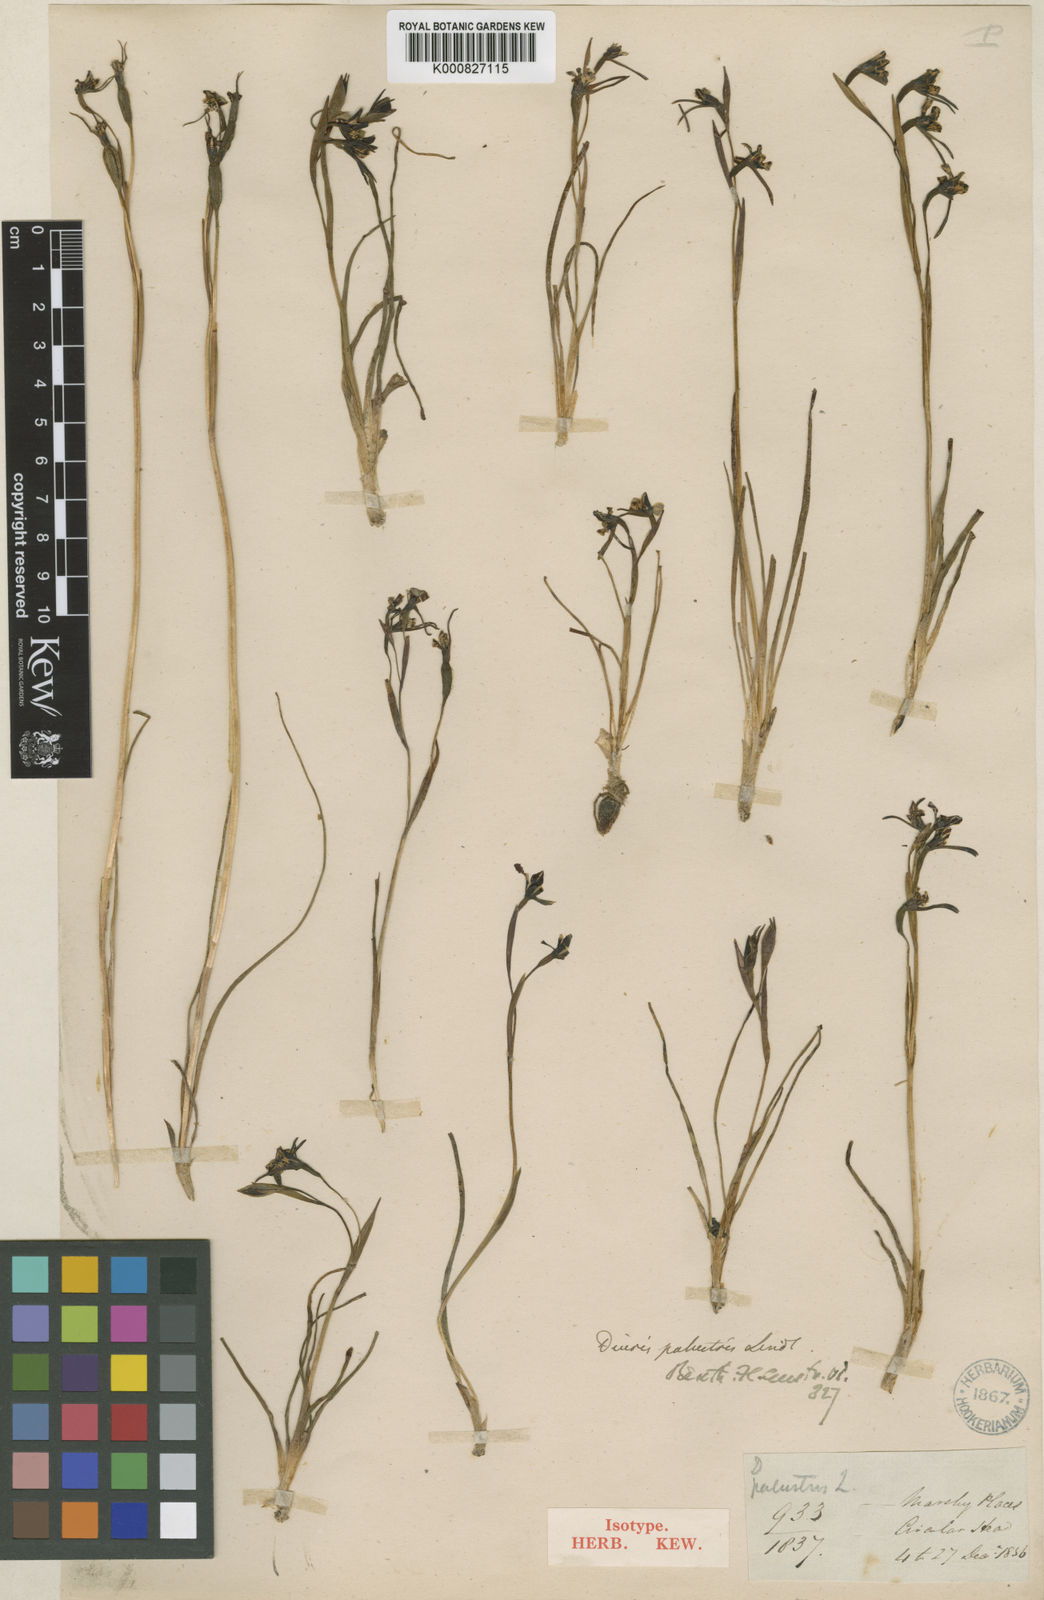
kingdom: Plantae
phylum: Tracheophyta
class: Liliopsida
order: Asparagales
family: Orchidaceae
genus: Diuris
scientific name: Diuris palustris
